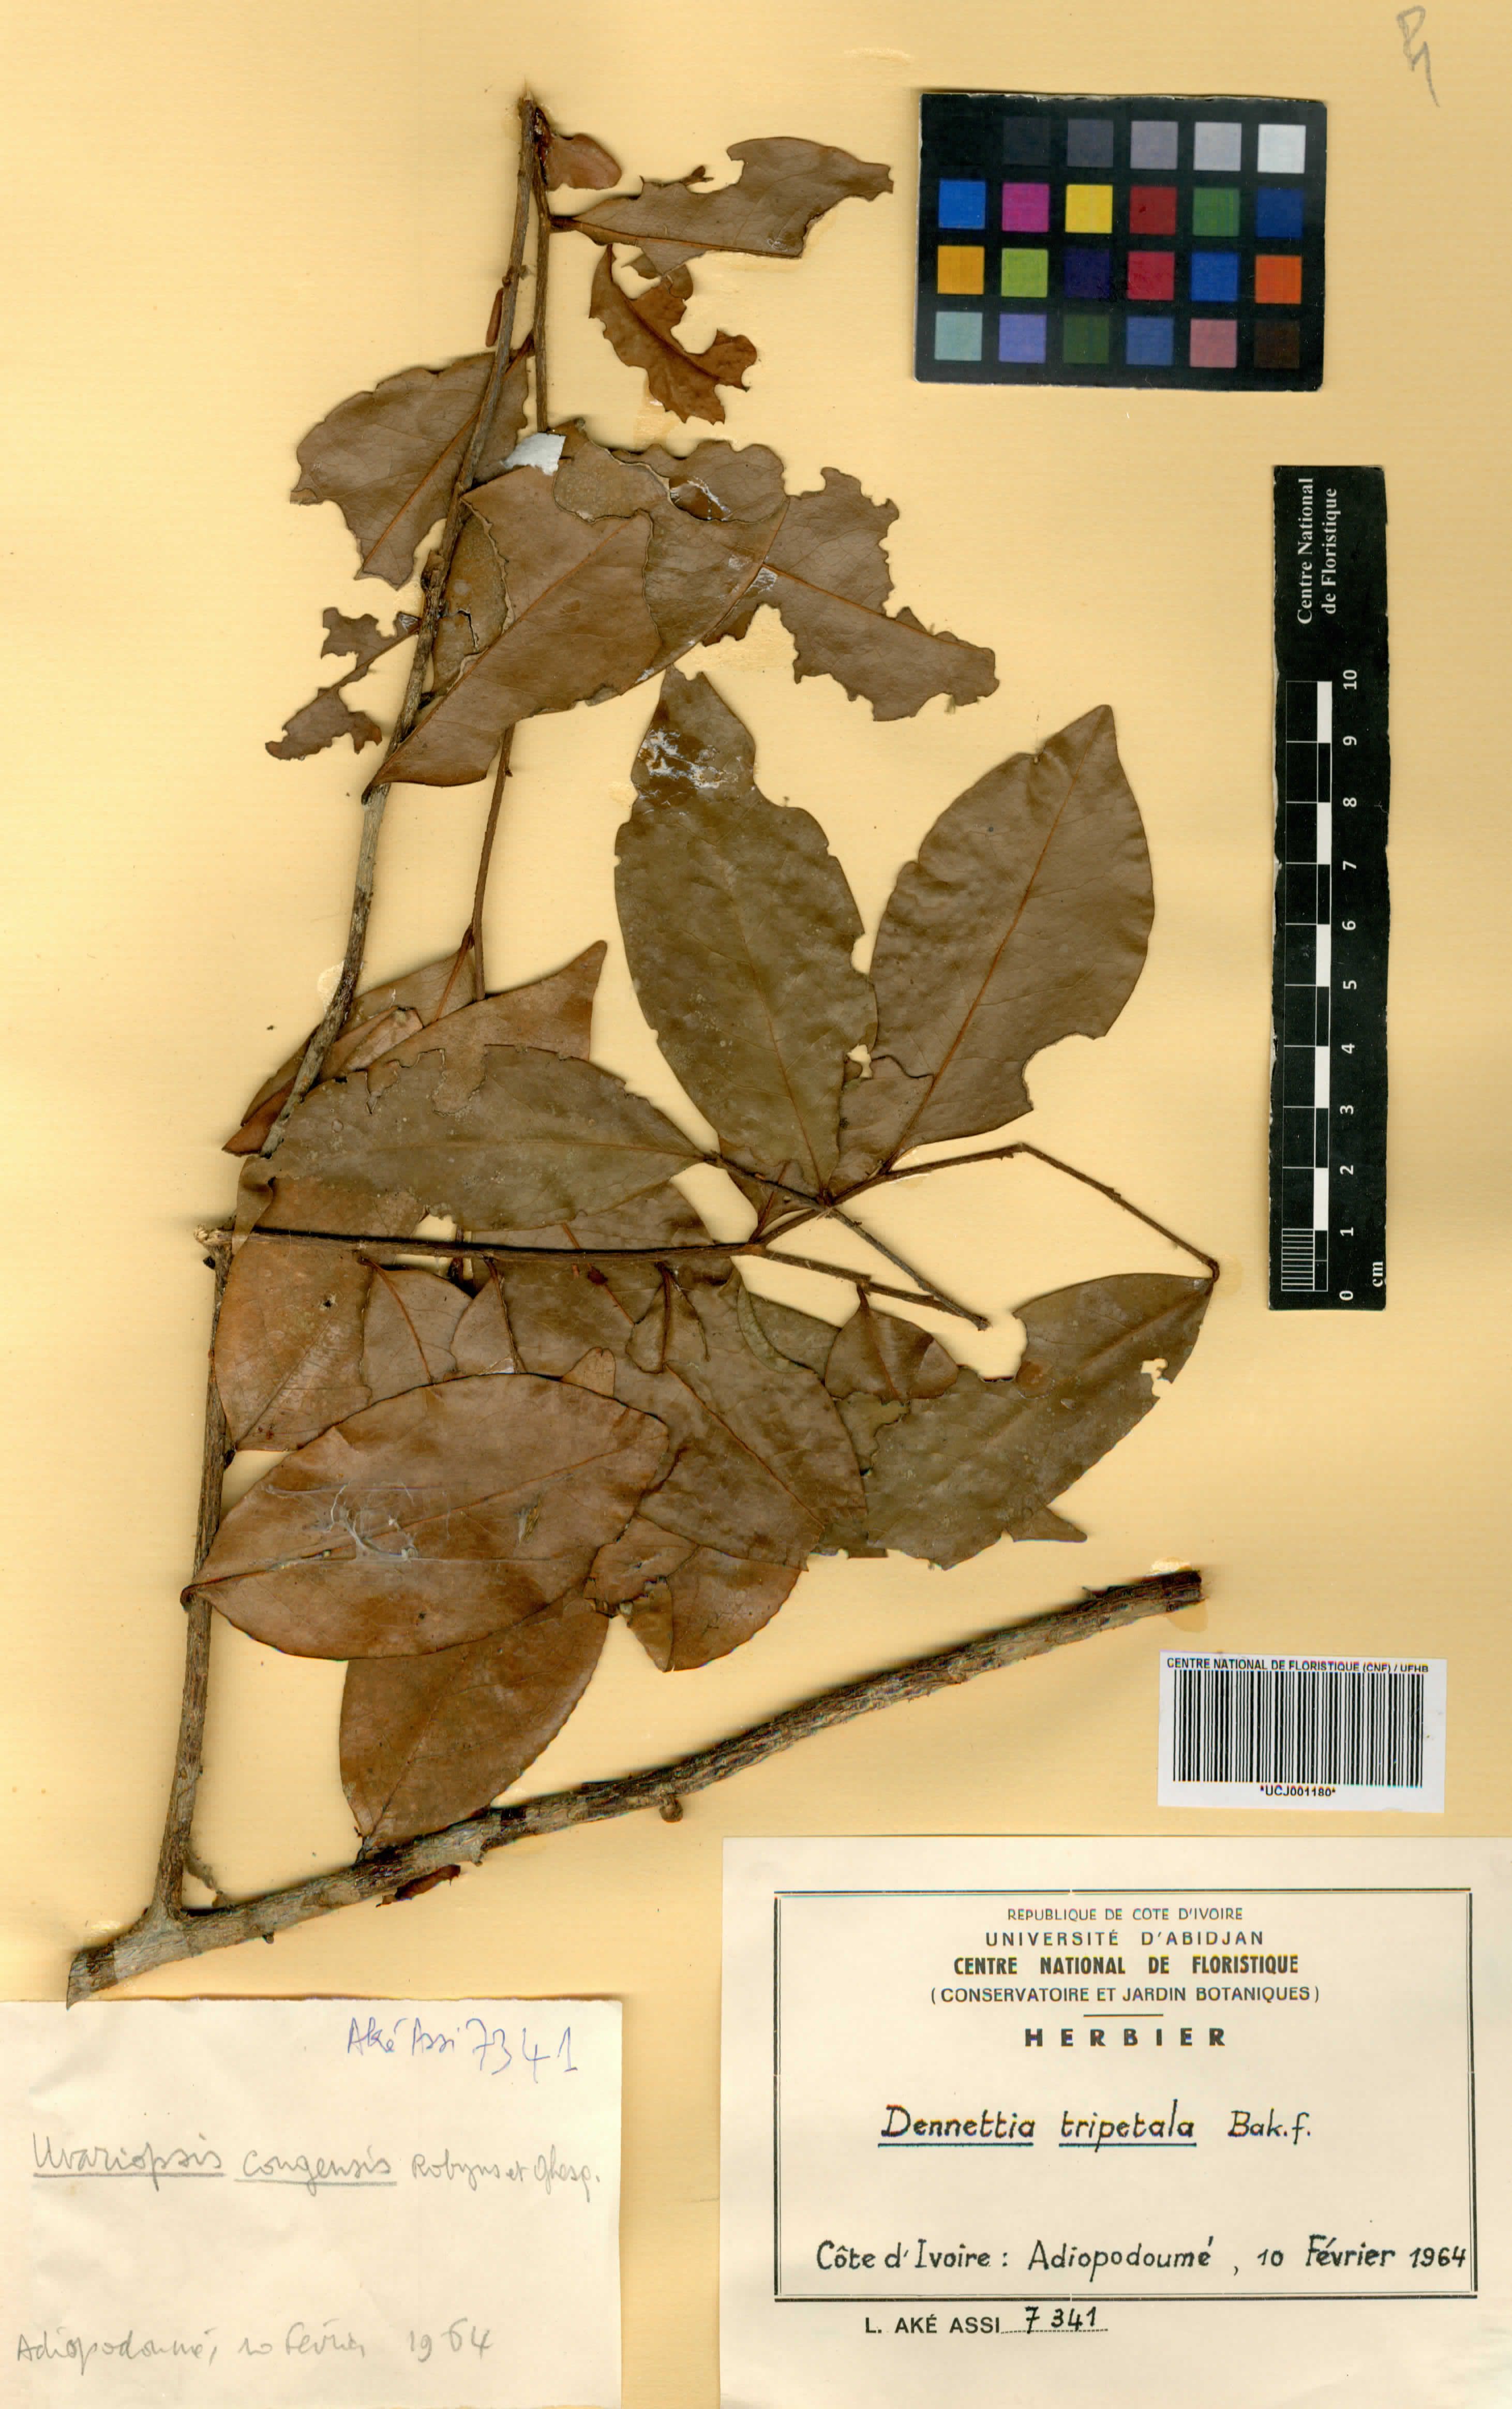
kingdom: Plantae
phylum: Tracheophyta
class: Magnoliopsida
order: Magnoliales
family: Annonaceae
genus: Uvariopsis
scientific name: Uvariopsis tripetala
